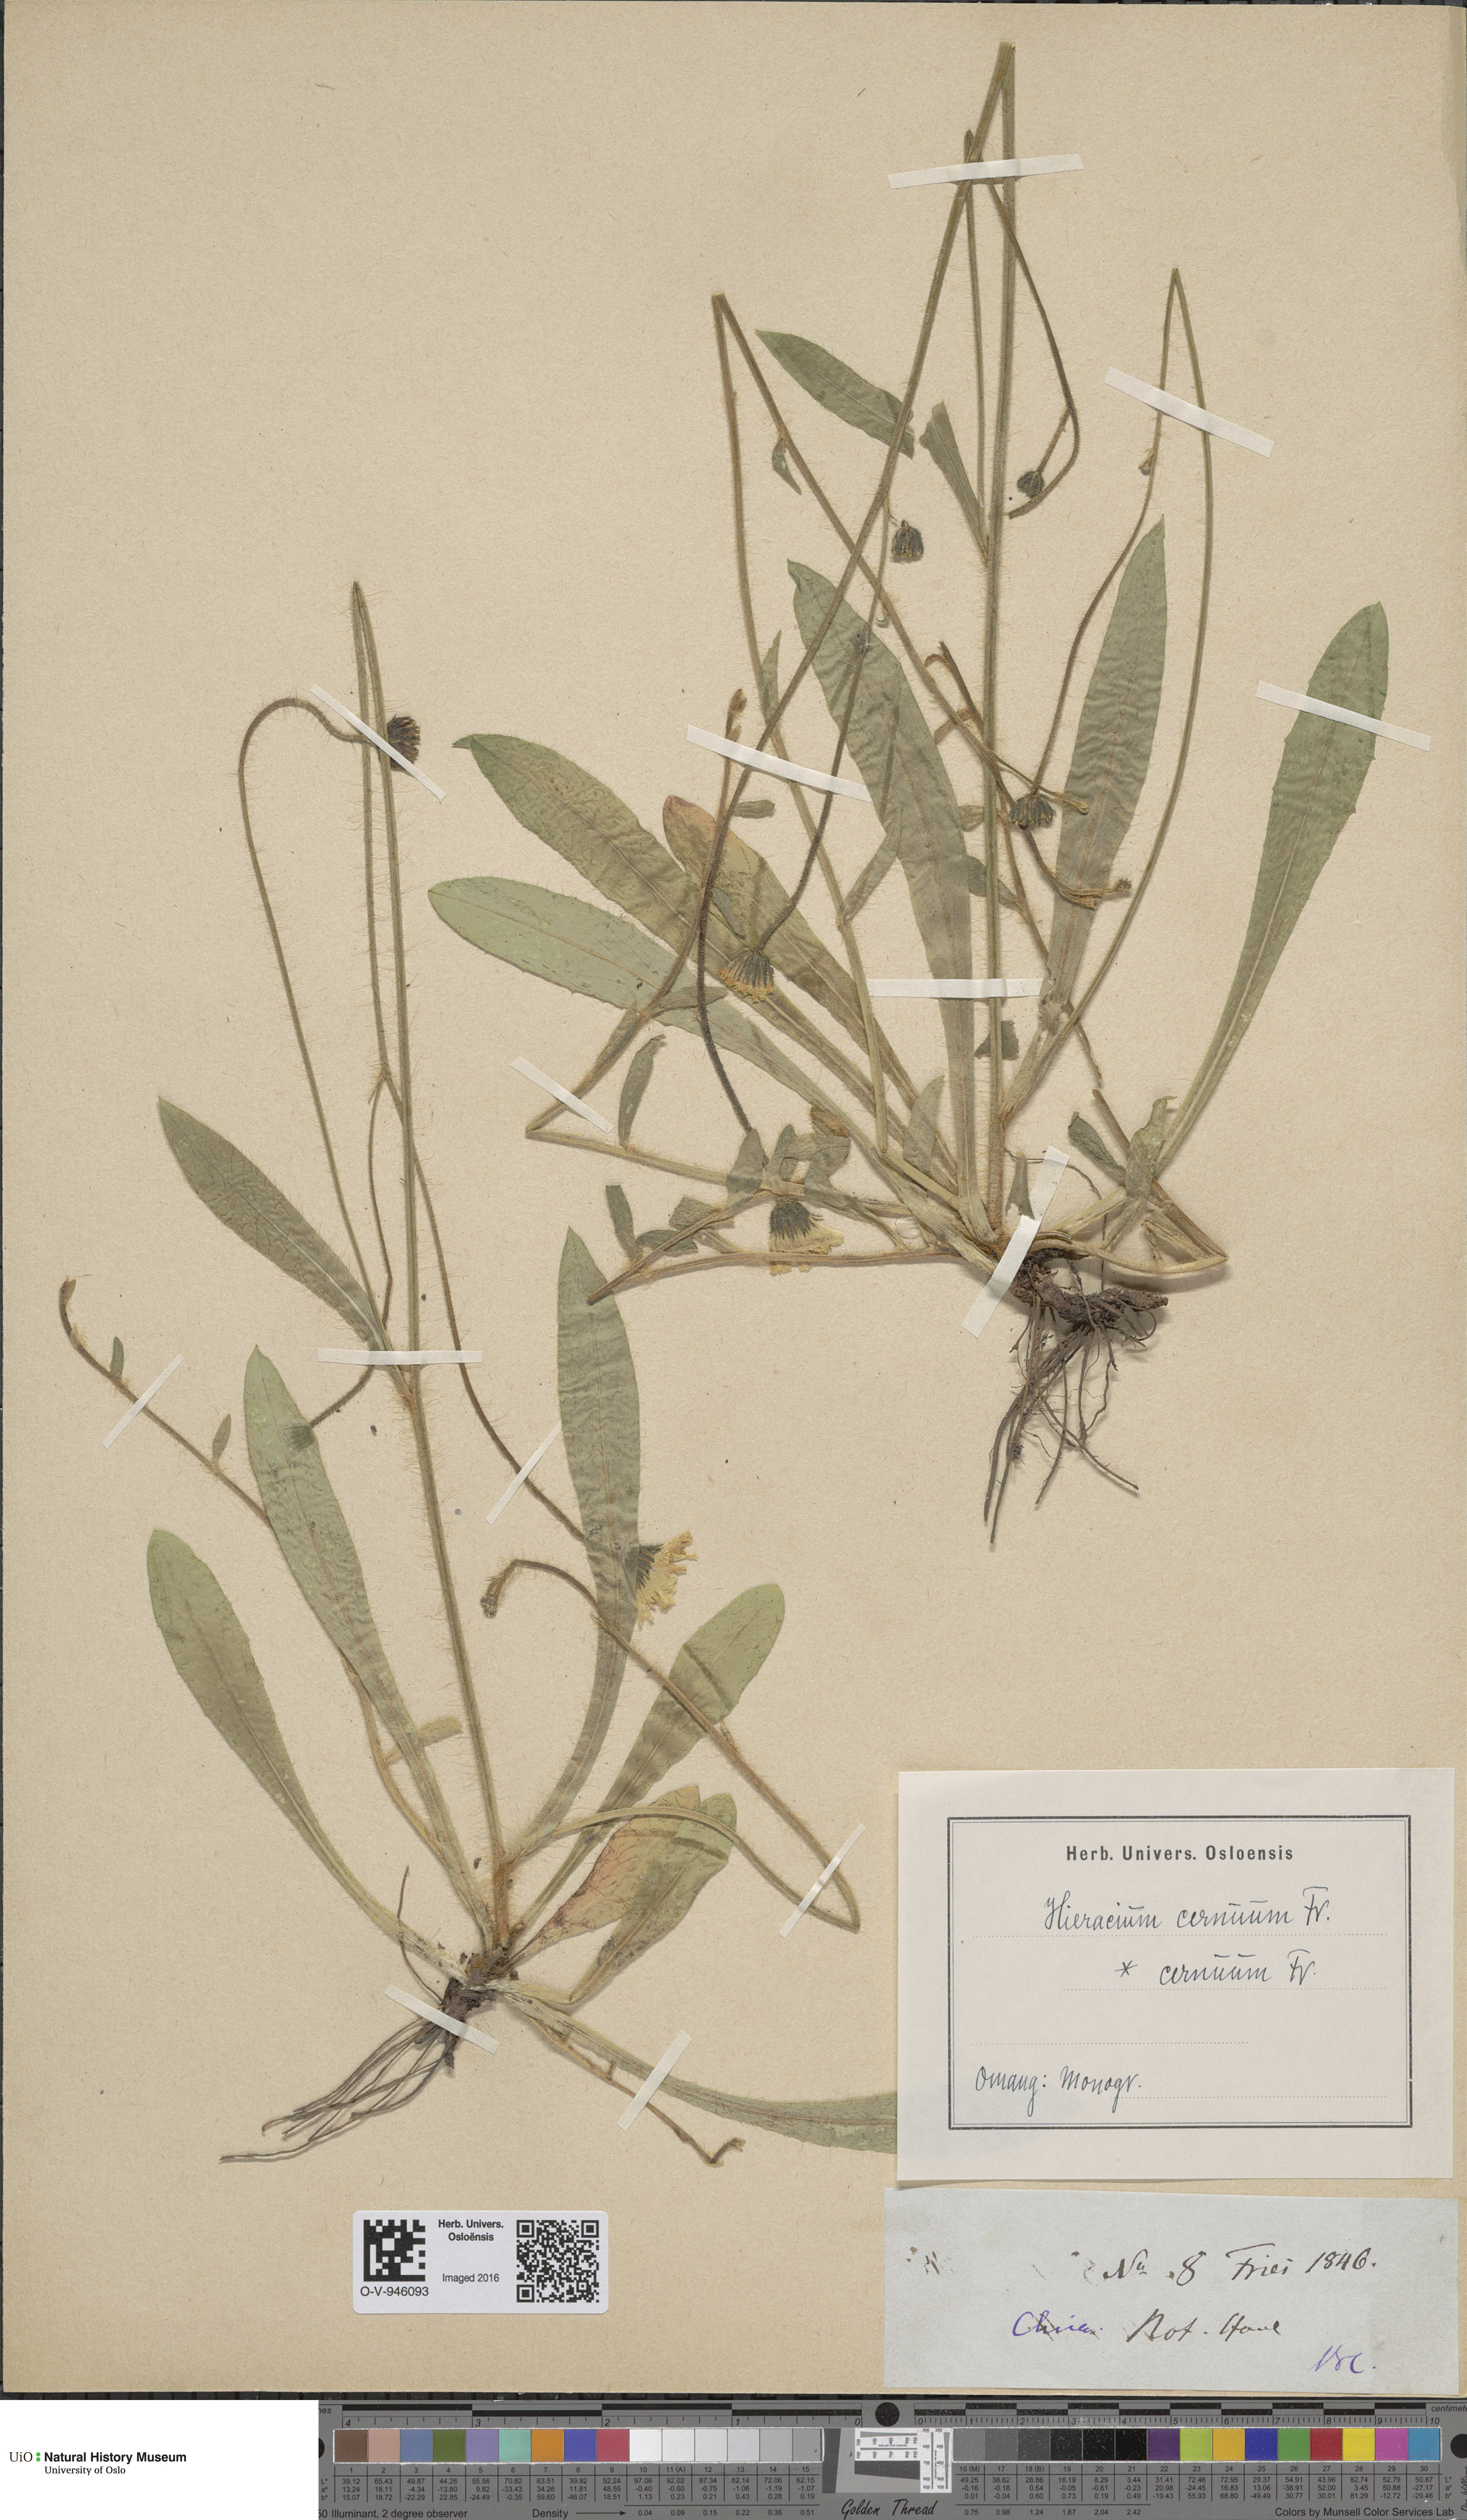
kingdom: Plantae
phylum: Tracheophyta
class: Magnoliopsida
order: Asterales
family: Asteraceae
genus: Pilosella
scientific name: Pilosella peteriana
